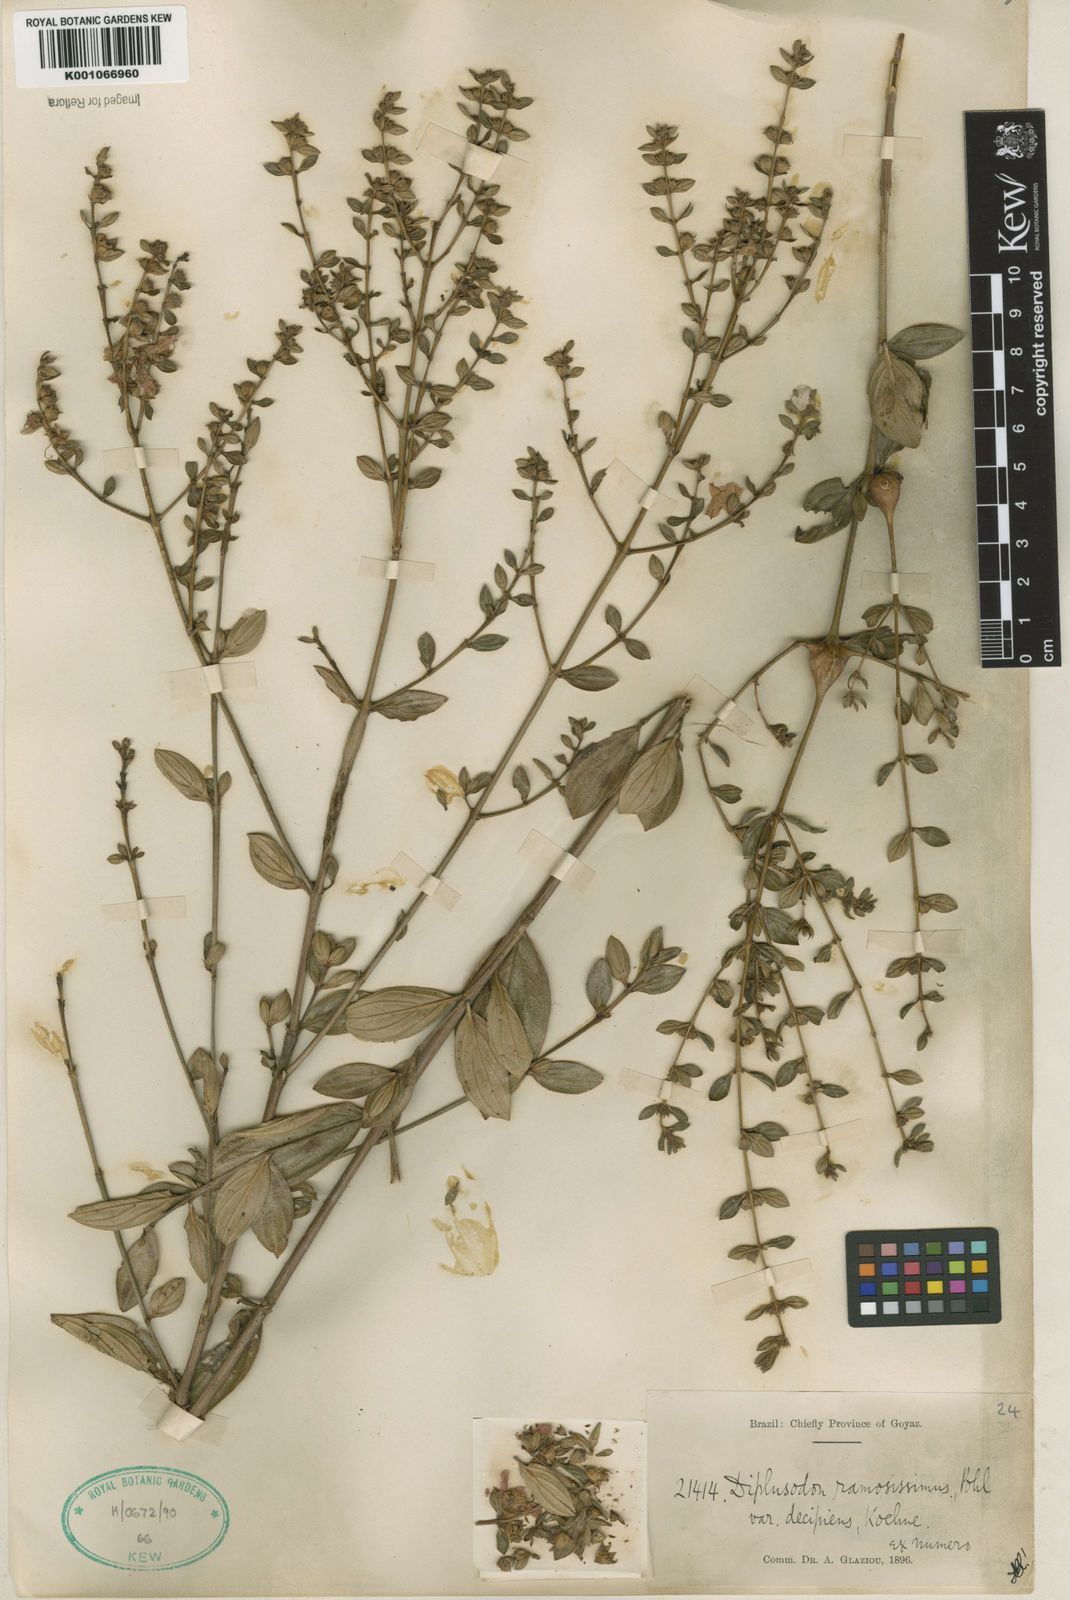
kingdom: Plantae
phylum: Tracheophyta
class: Magnoliopsida
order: Myrtales
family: Lythraceae
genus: Diplusodon
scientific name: Diplusodon ramosissimus
